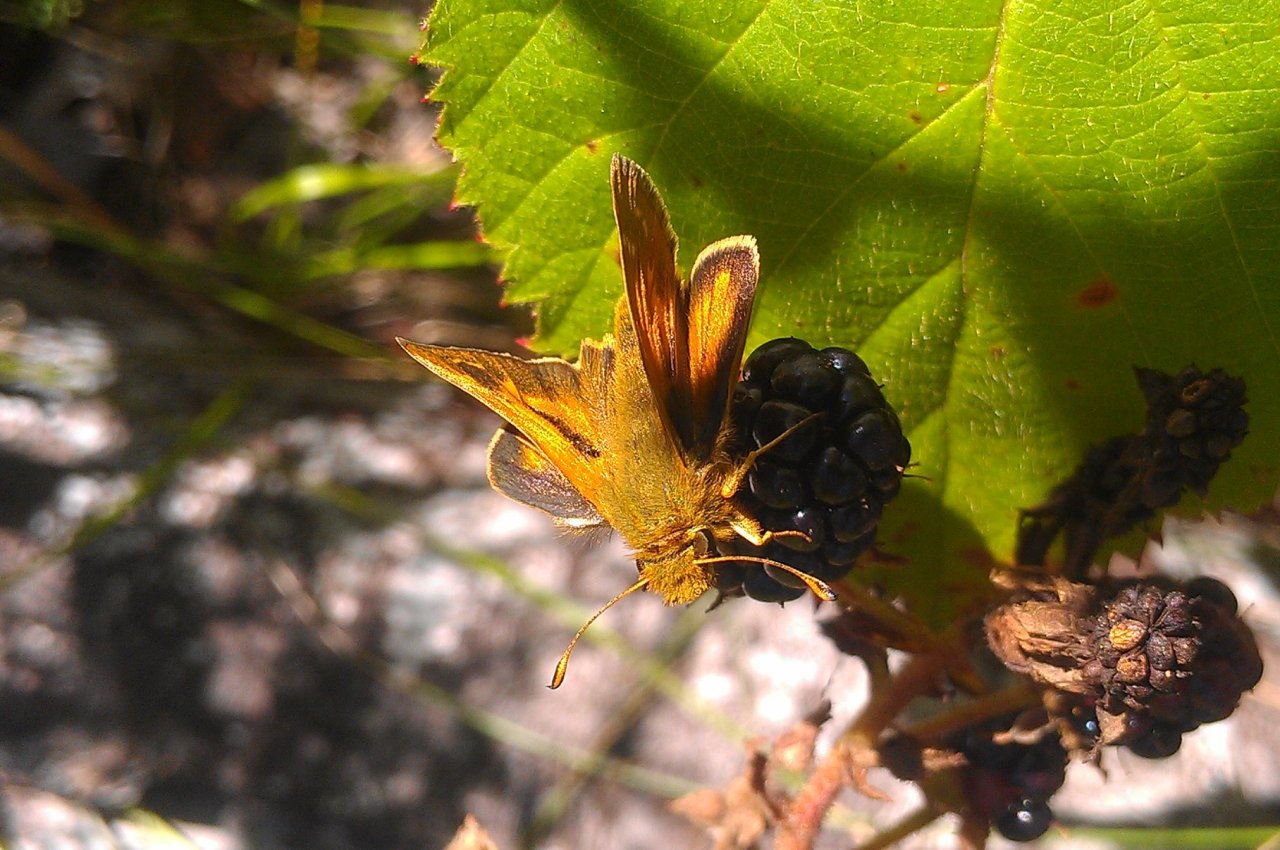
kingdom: Animalia
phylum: Arthropoda
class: Insecta
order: Lepidoptera
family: Hesperiidae
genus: Hesperia
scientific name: Hesperia comma
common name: Common Branded Skipper
